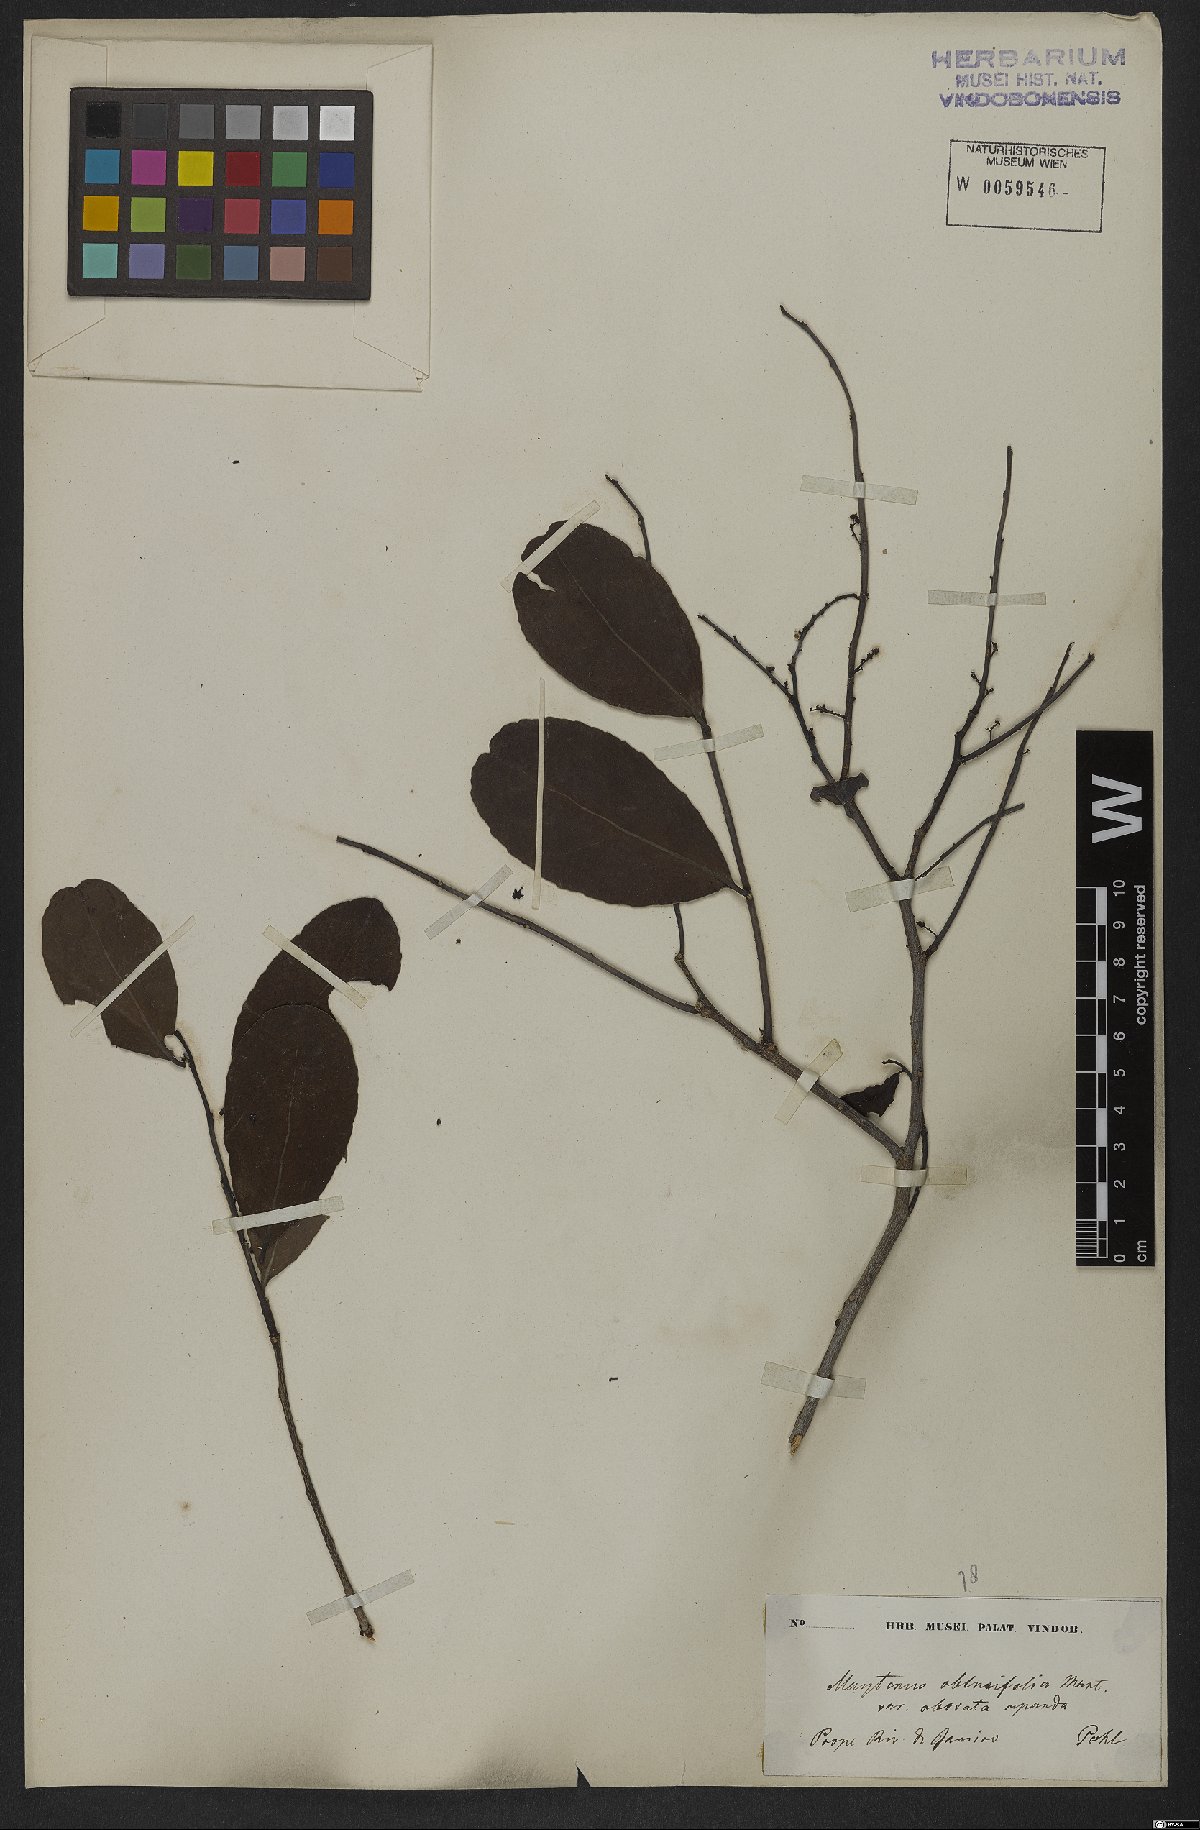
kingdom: Plantae
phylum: Tracheophyta
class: Magnoliopsida
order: Celastrales
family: Celastraceae
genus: Monteverdia
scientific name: Monteverdia obtusifolia
